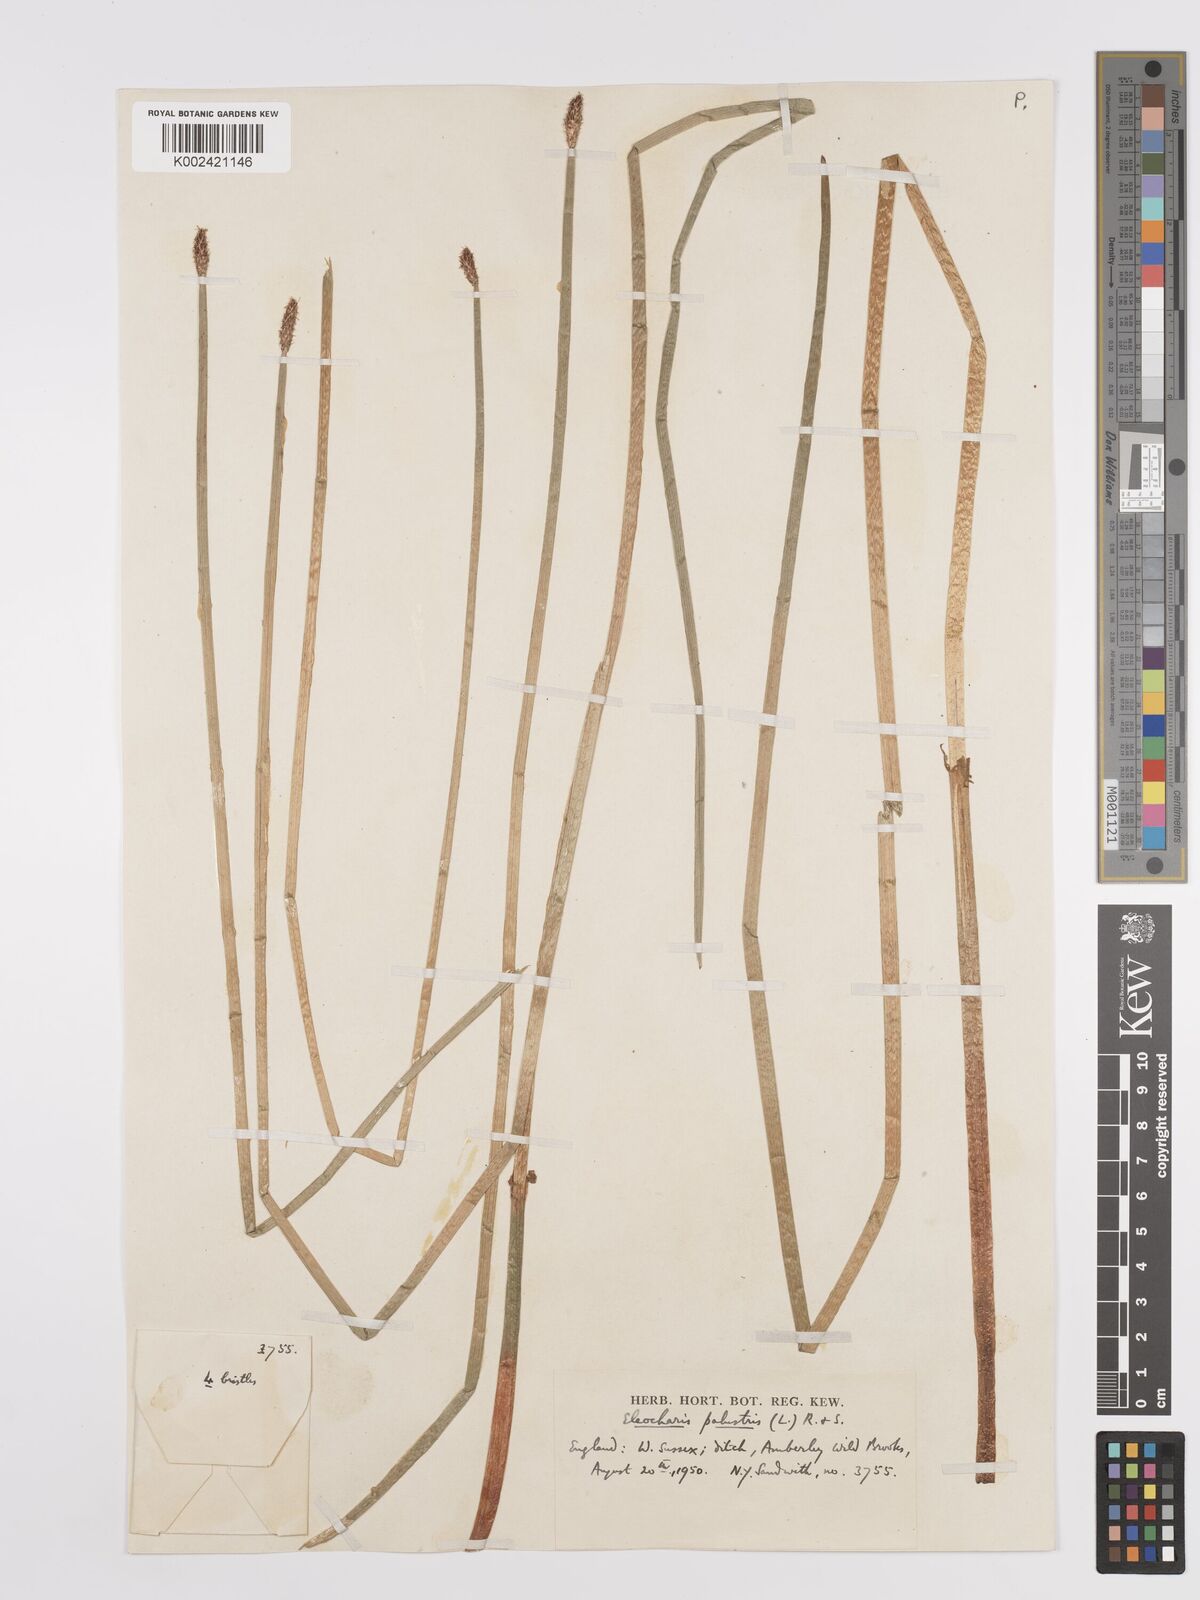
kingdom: Plantae
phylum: Tracheophyta
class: Liliopsida
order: Poales
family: Cyperaceae
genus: Eleocharis
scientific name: Eleocharis palustris
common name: Common spike-rush
